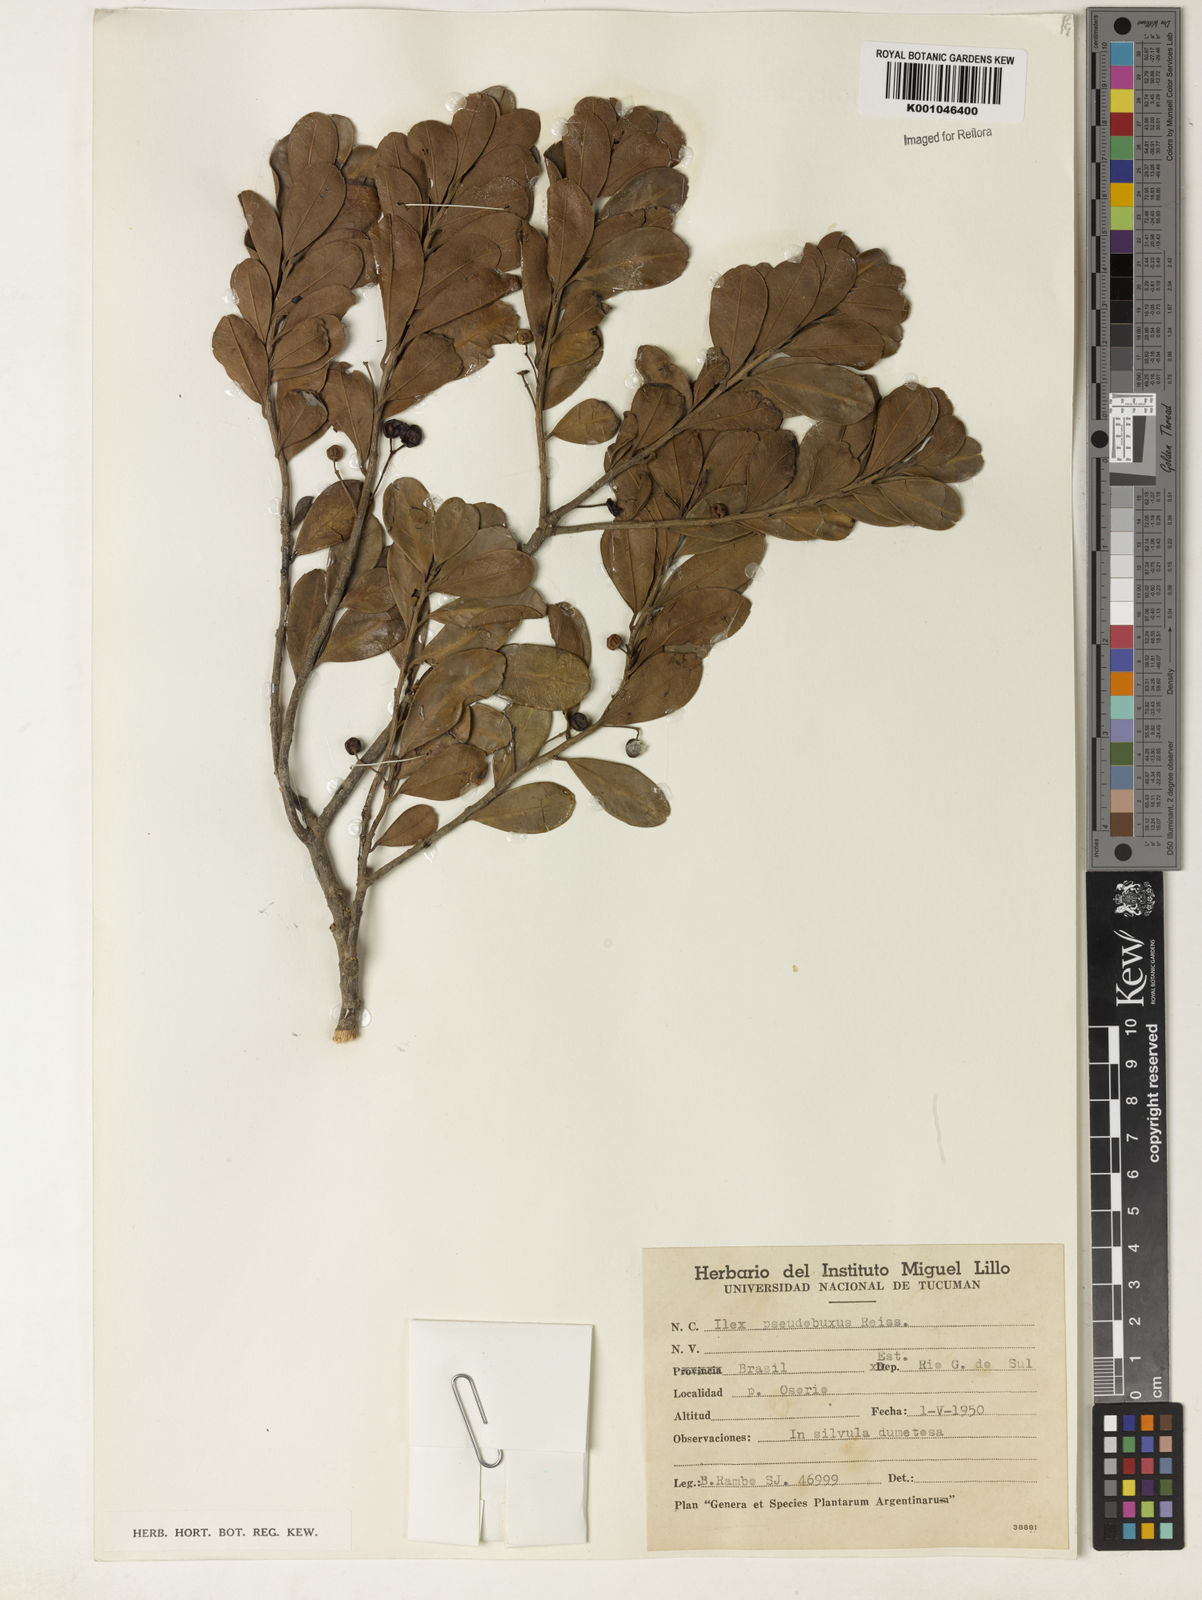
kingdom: Plantae
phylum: Tracheophyta
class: Magnoliopsida
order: Aquifoliales
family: Aquifoliaceae
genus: Ilex
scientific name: Ilex pseudobuxus
